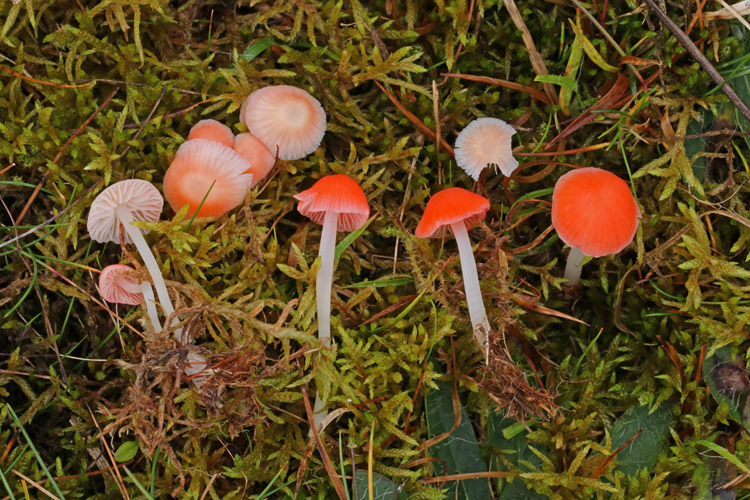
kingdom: Fungi
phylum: Basidiomycota
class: Agaricomycetes
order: Agaricales
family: Mycenaceae
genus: Atheniella
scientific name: Atheniella adonis
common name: rønnerød huesvamp
